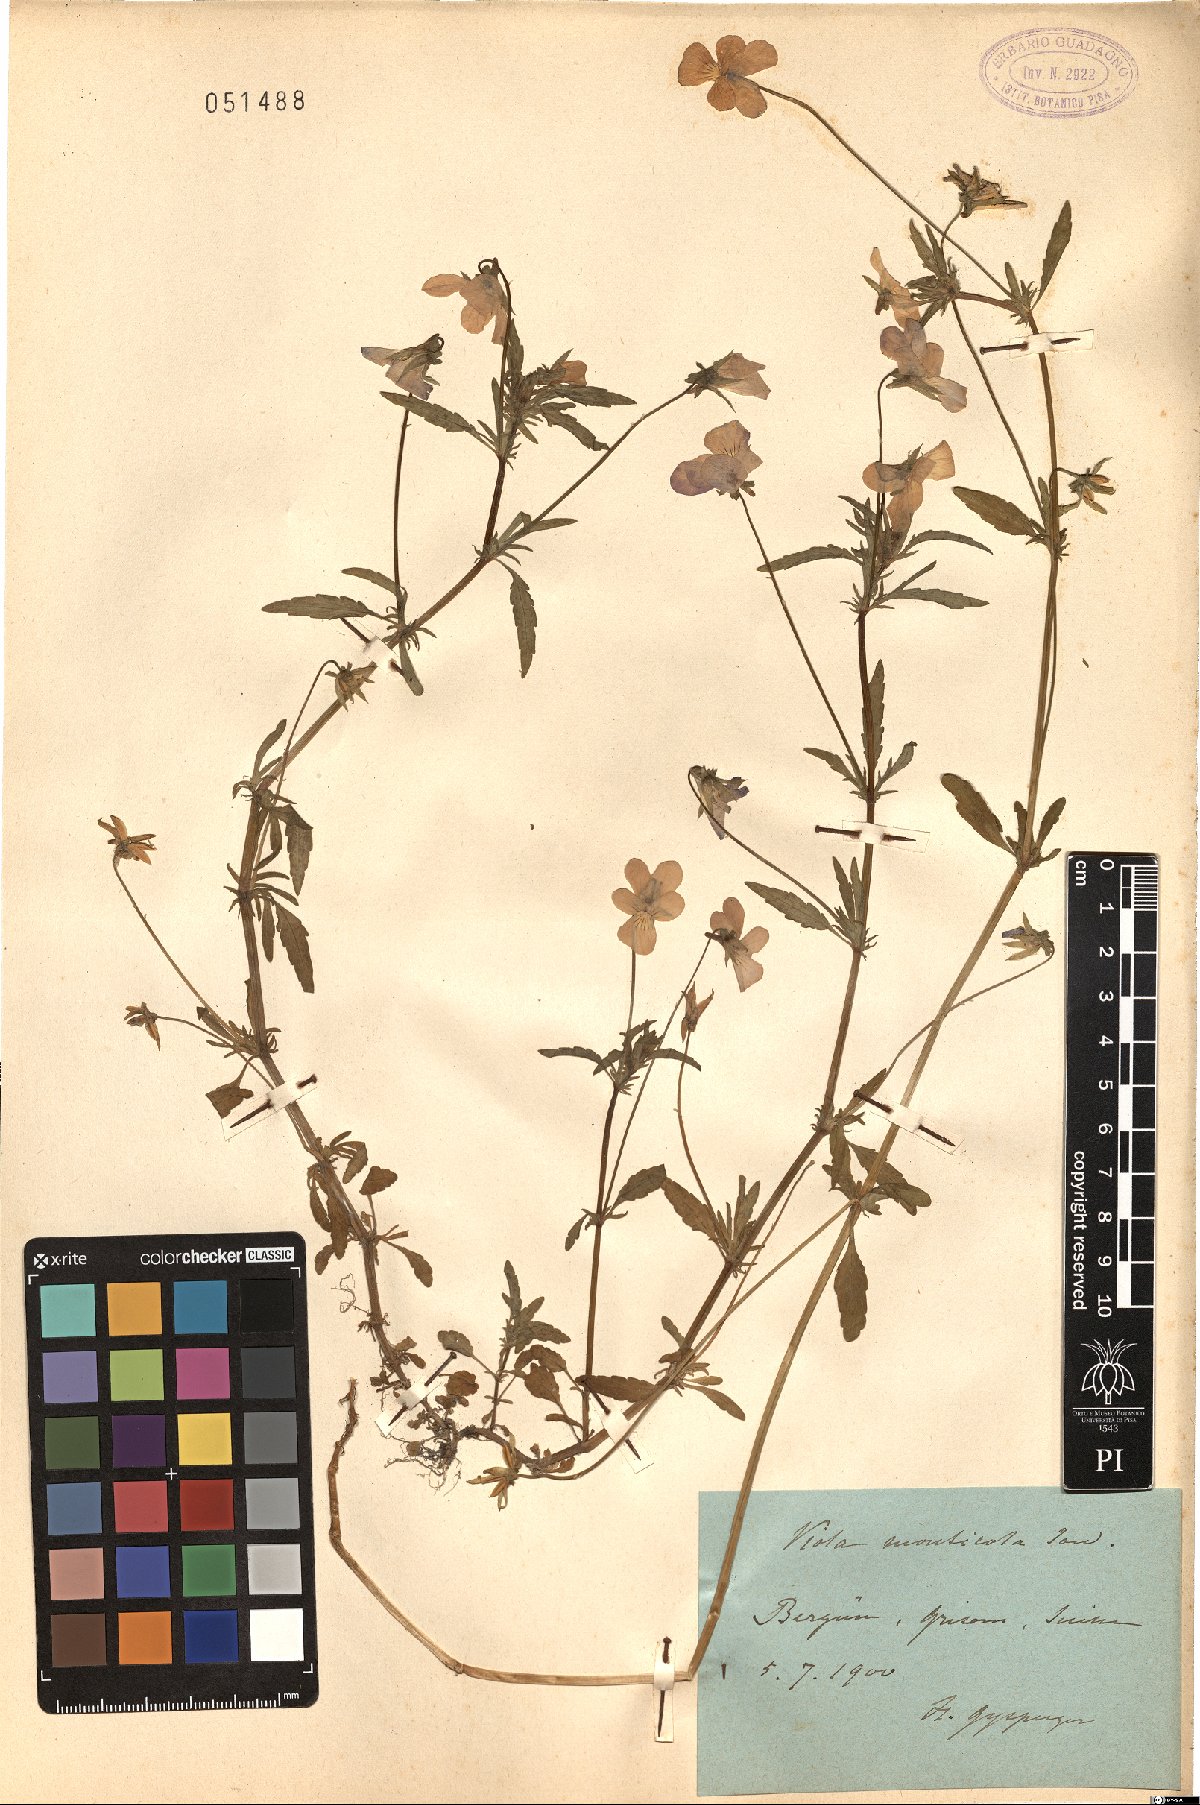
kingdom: Plantae
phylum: Tracheophyta
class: Magnoliopsida
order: Malpighiales
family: Violaceae
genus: Viola
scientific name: Viola tricolor
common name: Pansy
